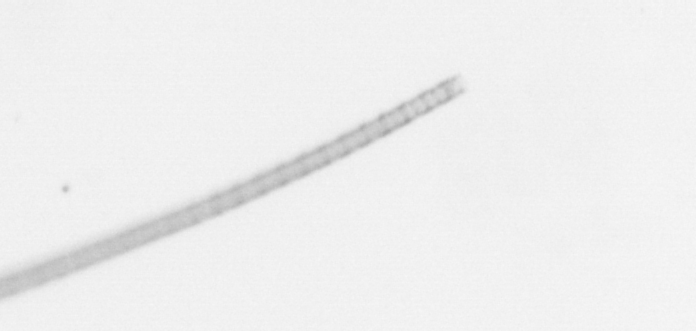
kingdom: Chromista
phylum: Ochrophyta
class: Bacillariophyceae
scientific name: Bacillariophyceae
